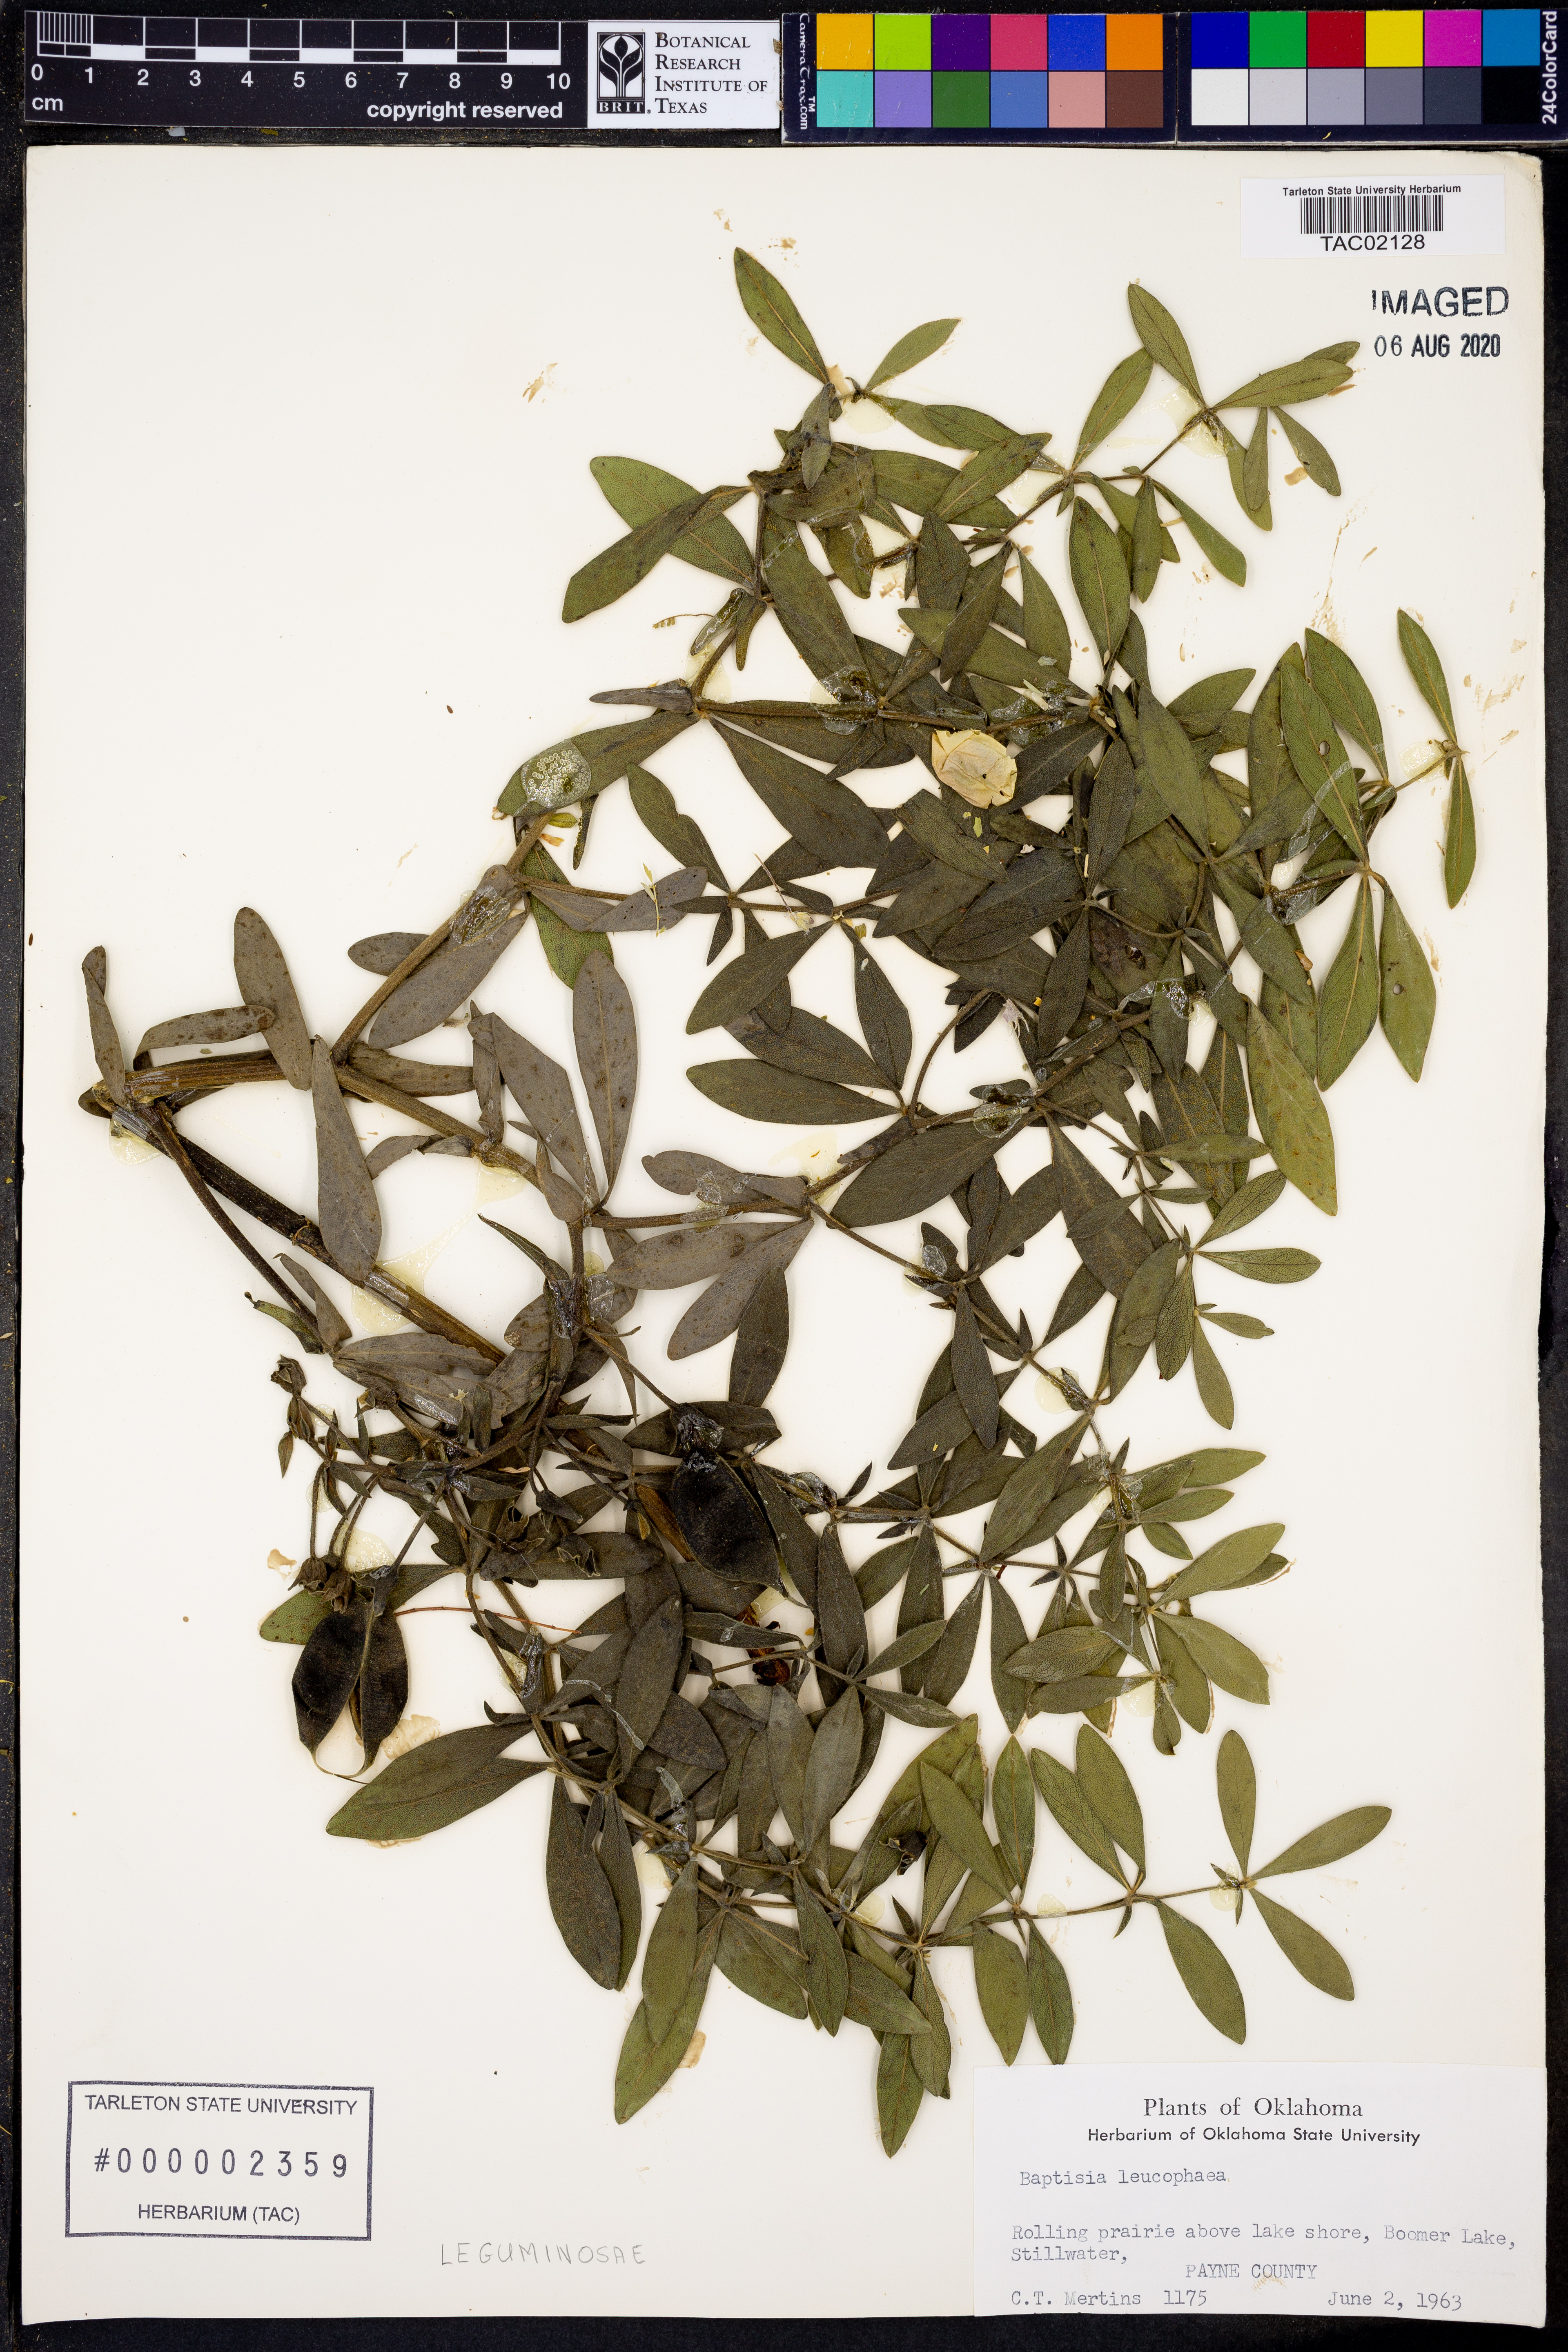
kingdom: Plantae
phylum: Tracheophyta
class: Magnoliopsida
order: Fabales
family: Fabaceae
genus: Baptisia
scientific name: Baptisia bracteata
